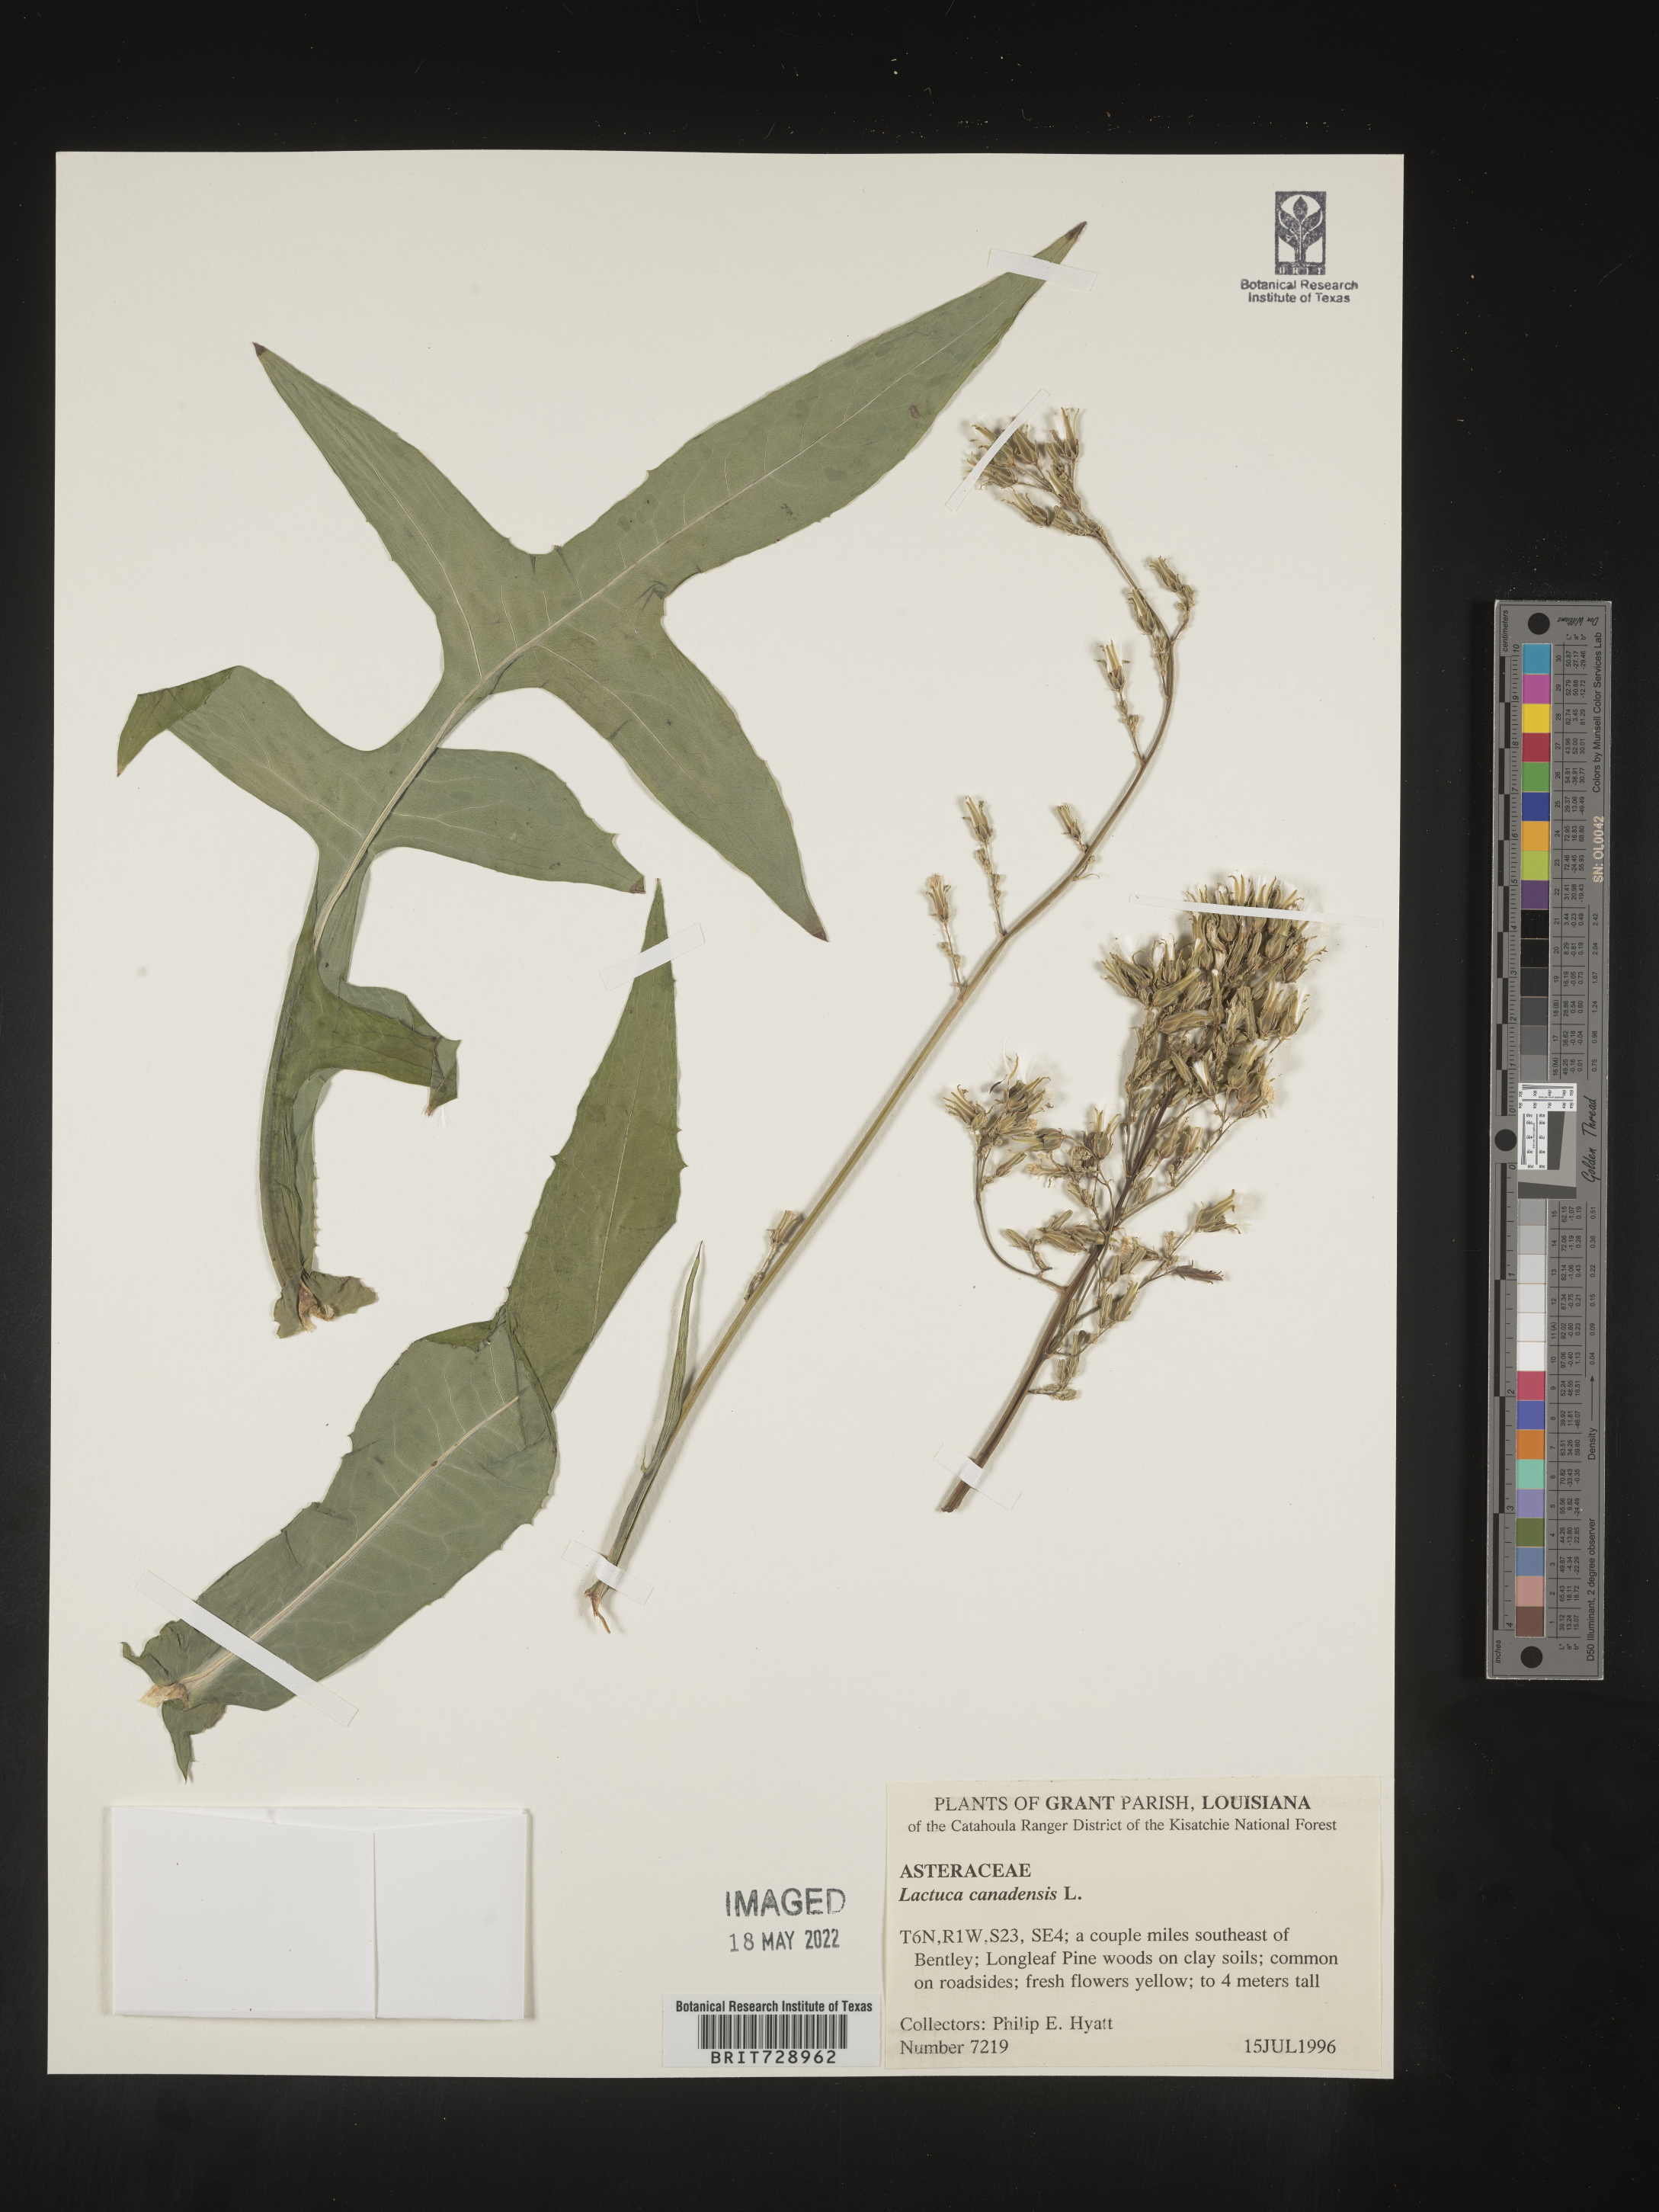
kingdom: Plantae
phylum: Tracheophyta
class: Magnoliopsida
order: Asterales
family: Asteraceae
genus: Lactuca
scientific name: Lactuca canadensis
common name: Canada lettuce
